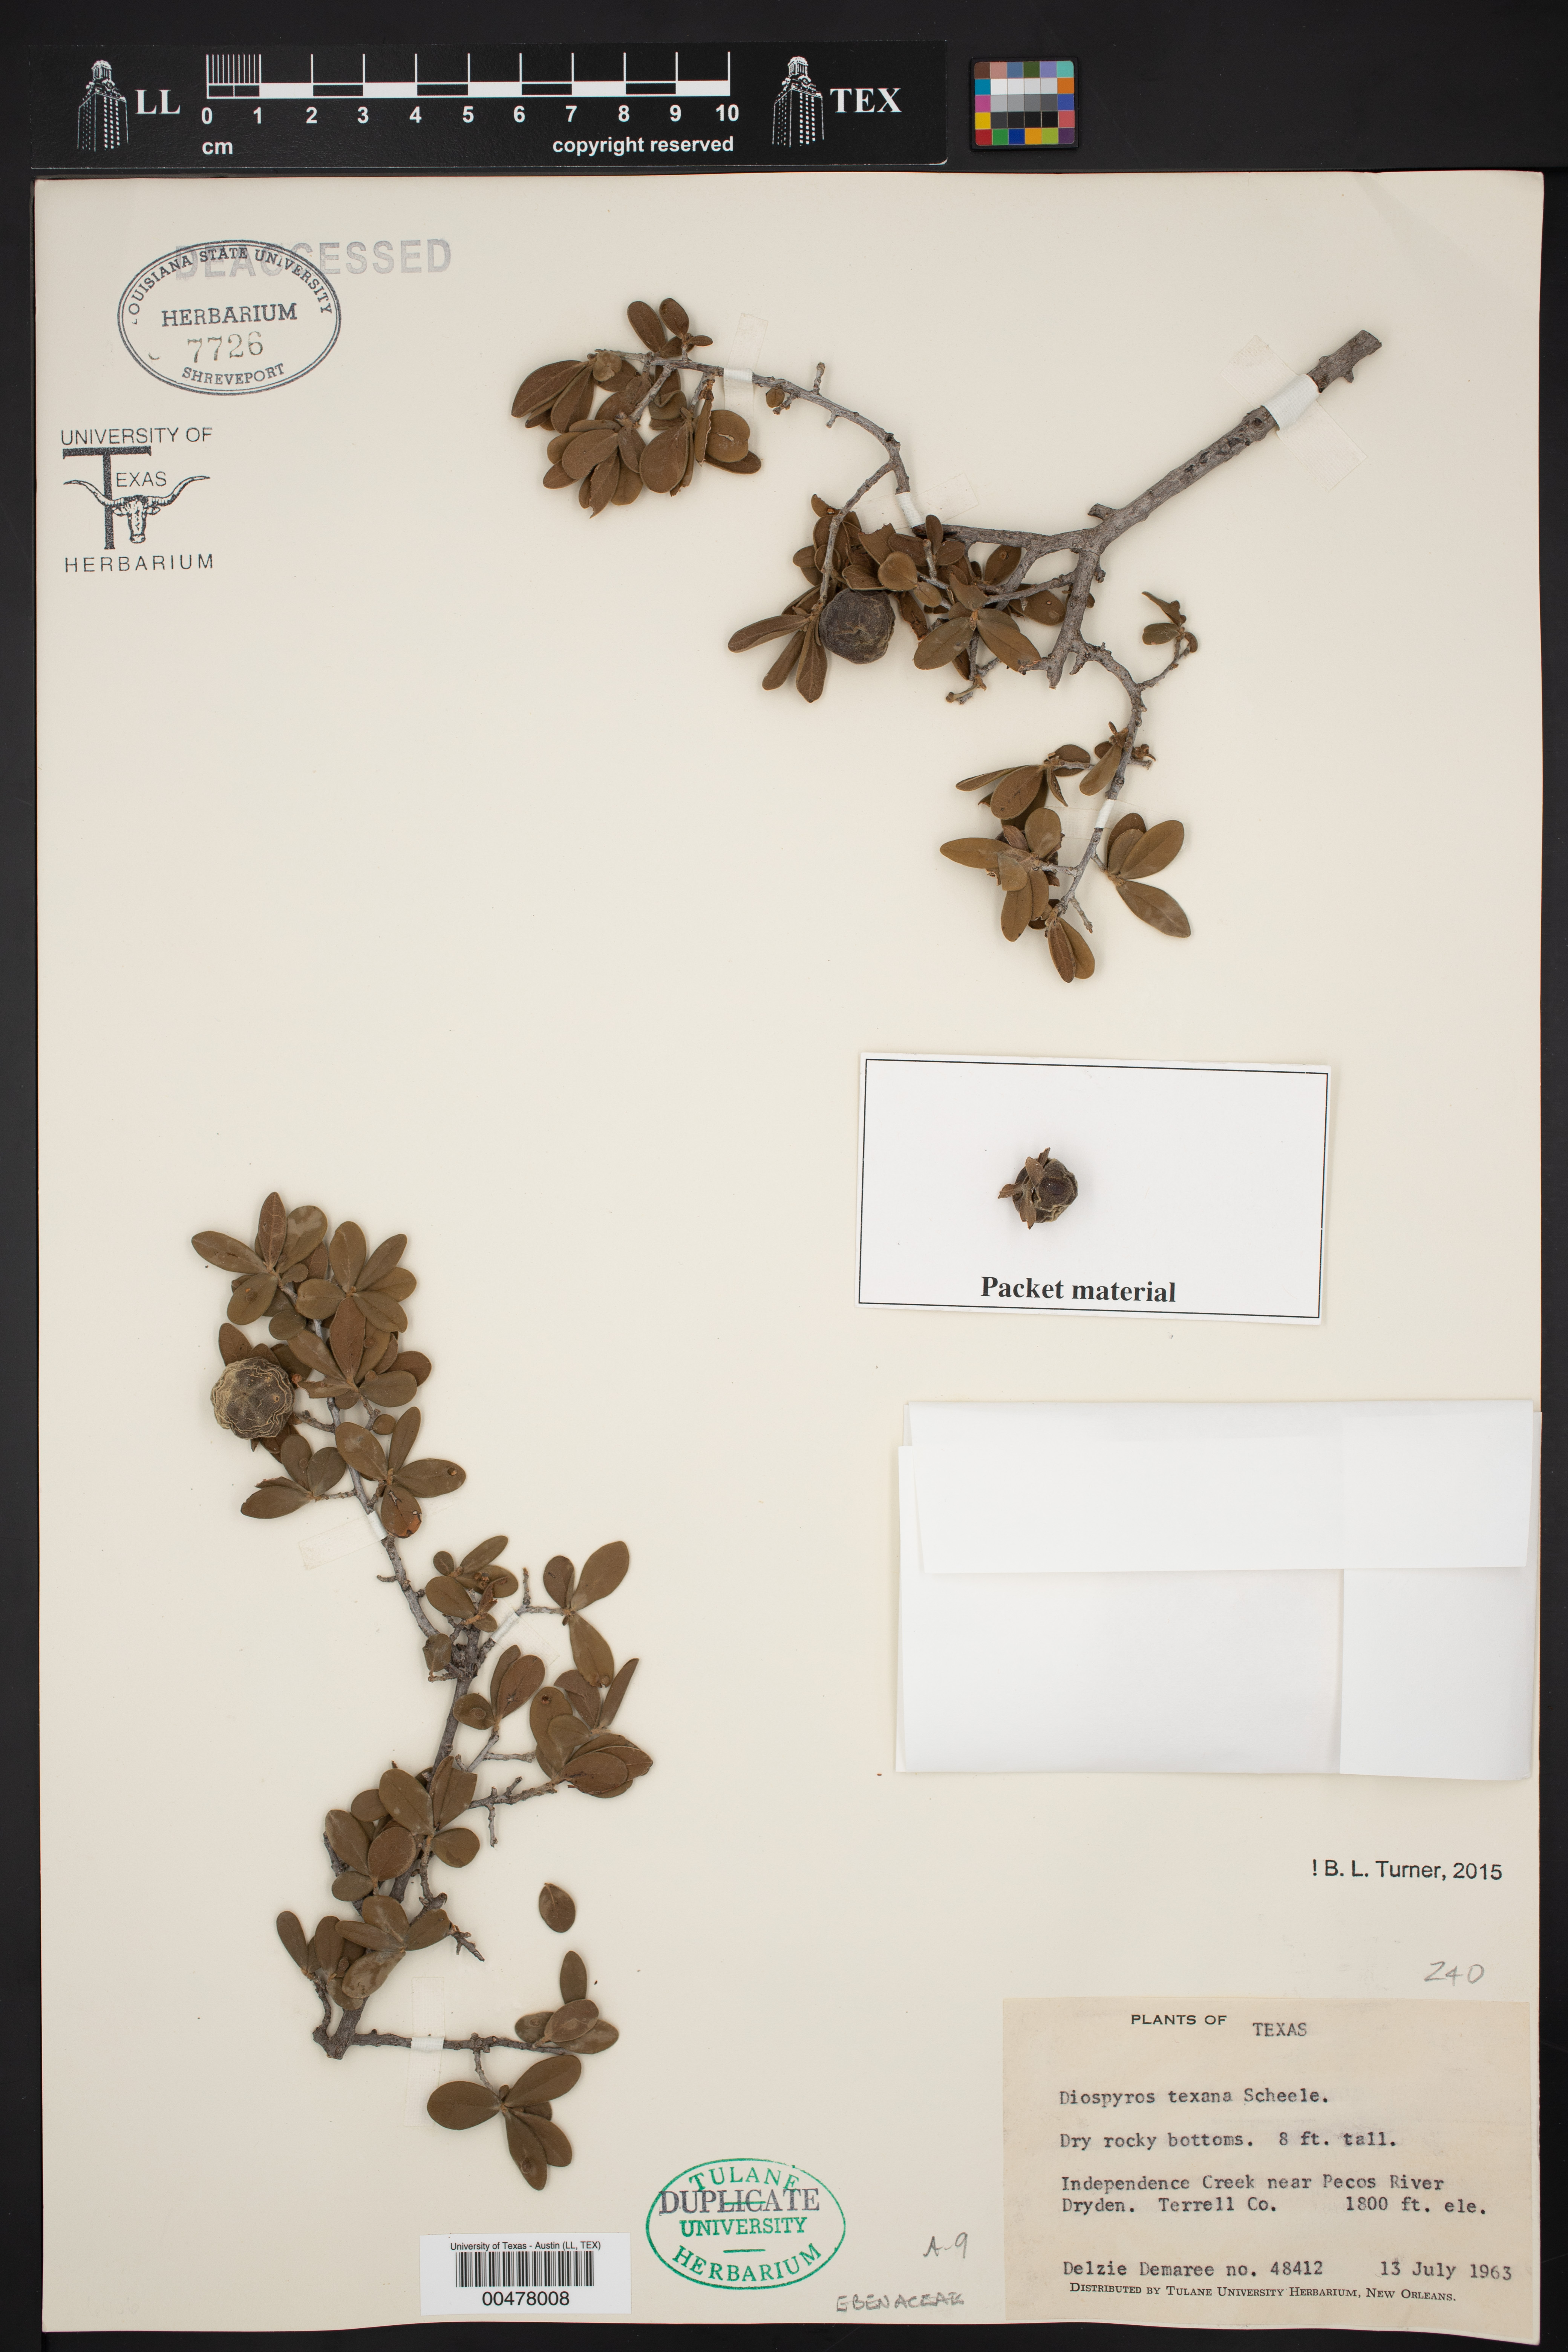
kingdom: Plantae
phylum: Tracheophyta
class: Magnoliopsida
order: Ericales
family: Ebenaceae
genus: Diospyros
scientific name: Diospyros texana
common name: Texas persimmon
